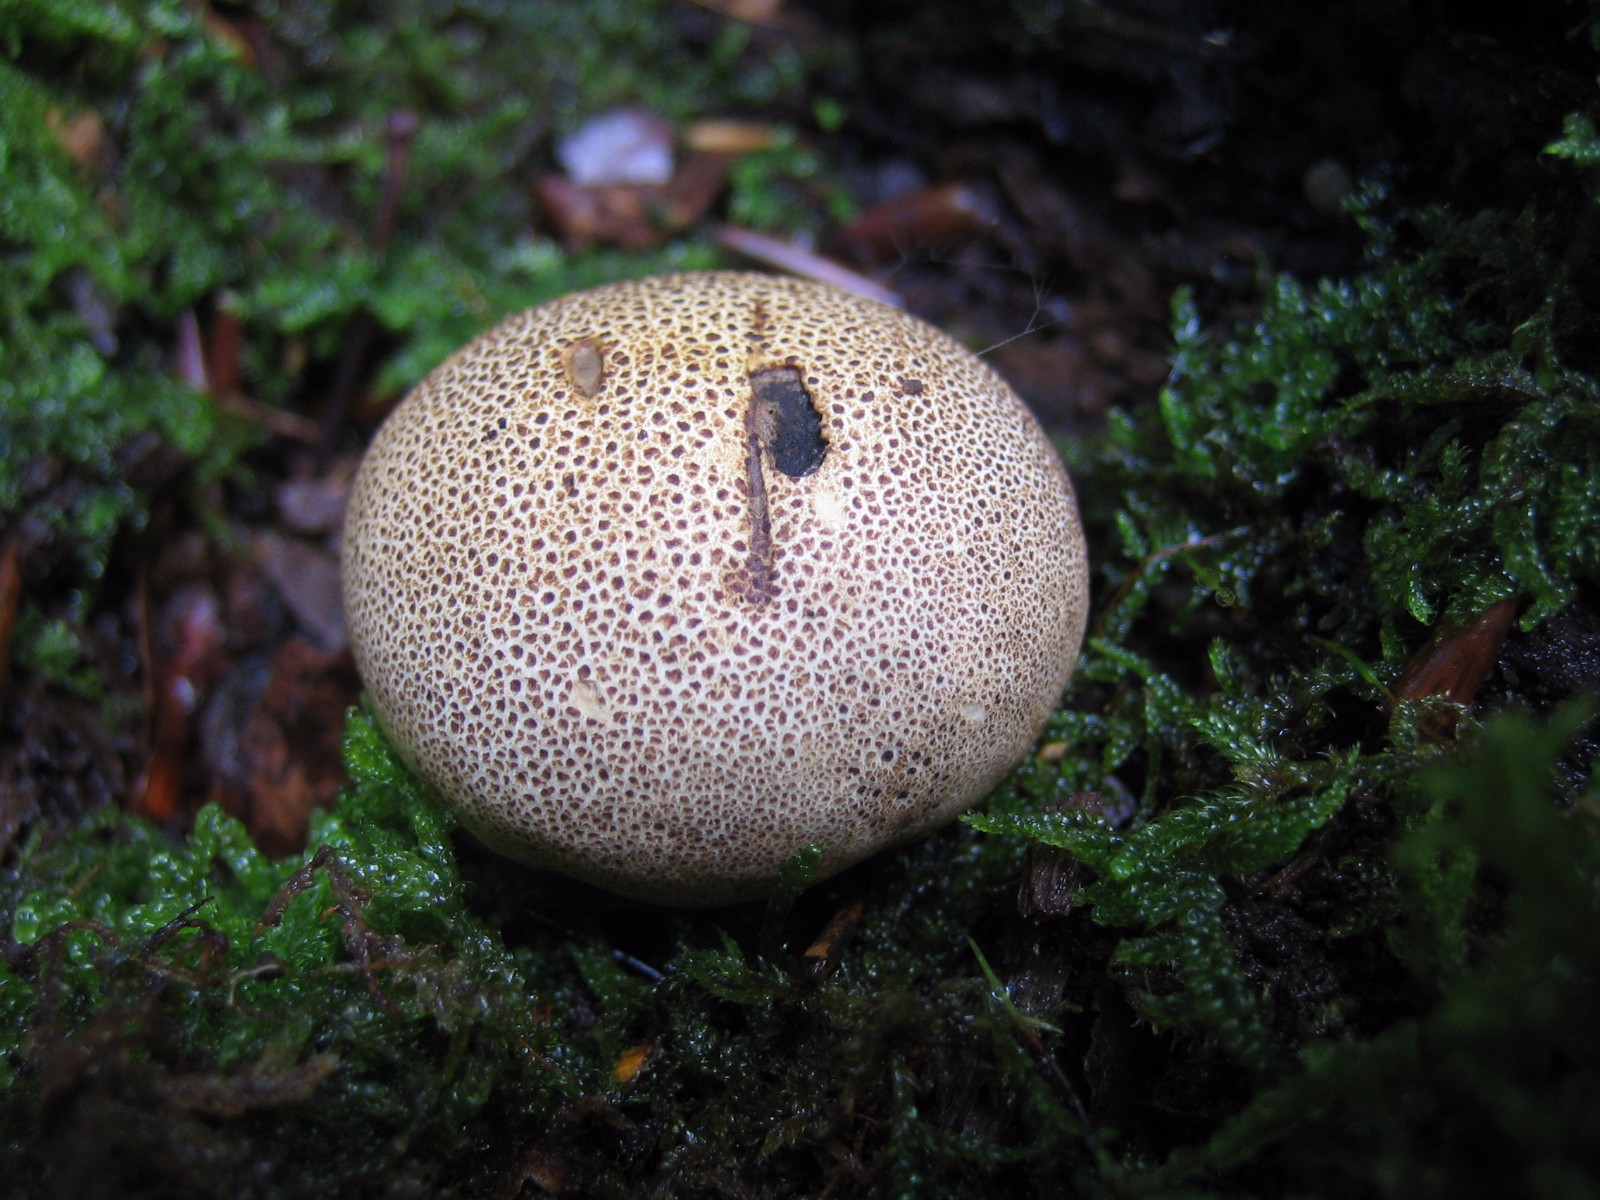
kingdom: Fungi
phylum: Basidiomycota
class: Agaricomycetes
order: Boletales
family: Sclerodermataceae
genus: Scleroderma
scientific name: Scleroderma citrinum
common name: almindelig bruskbold
